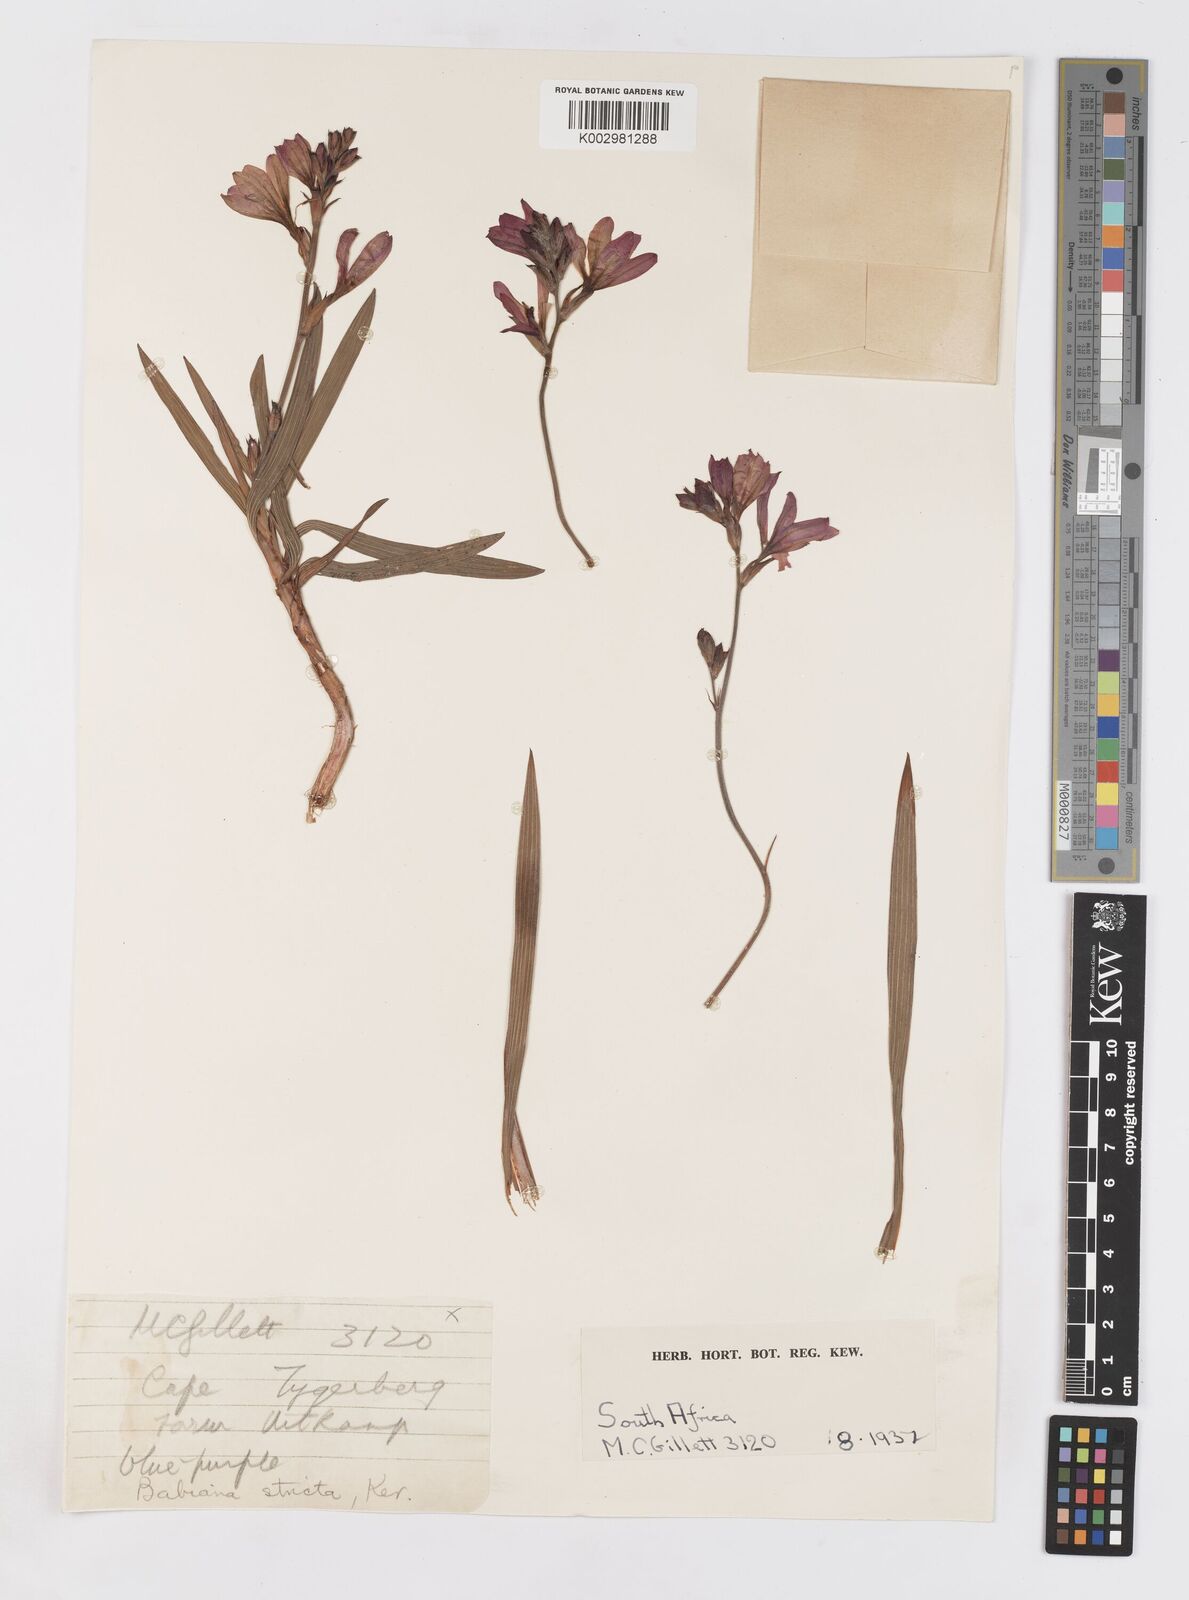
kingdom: Plantae
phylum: Tracheophyta
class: Liliopsida
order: Asparagales
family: Iridaceae
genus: Babiana
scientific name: Babiana nervosa
